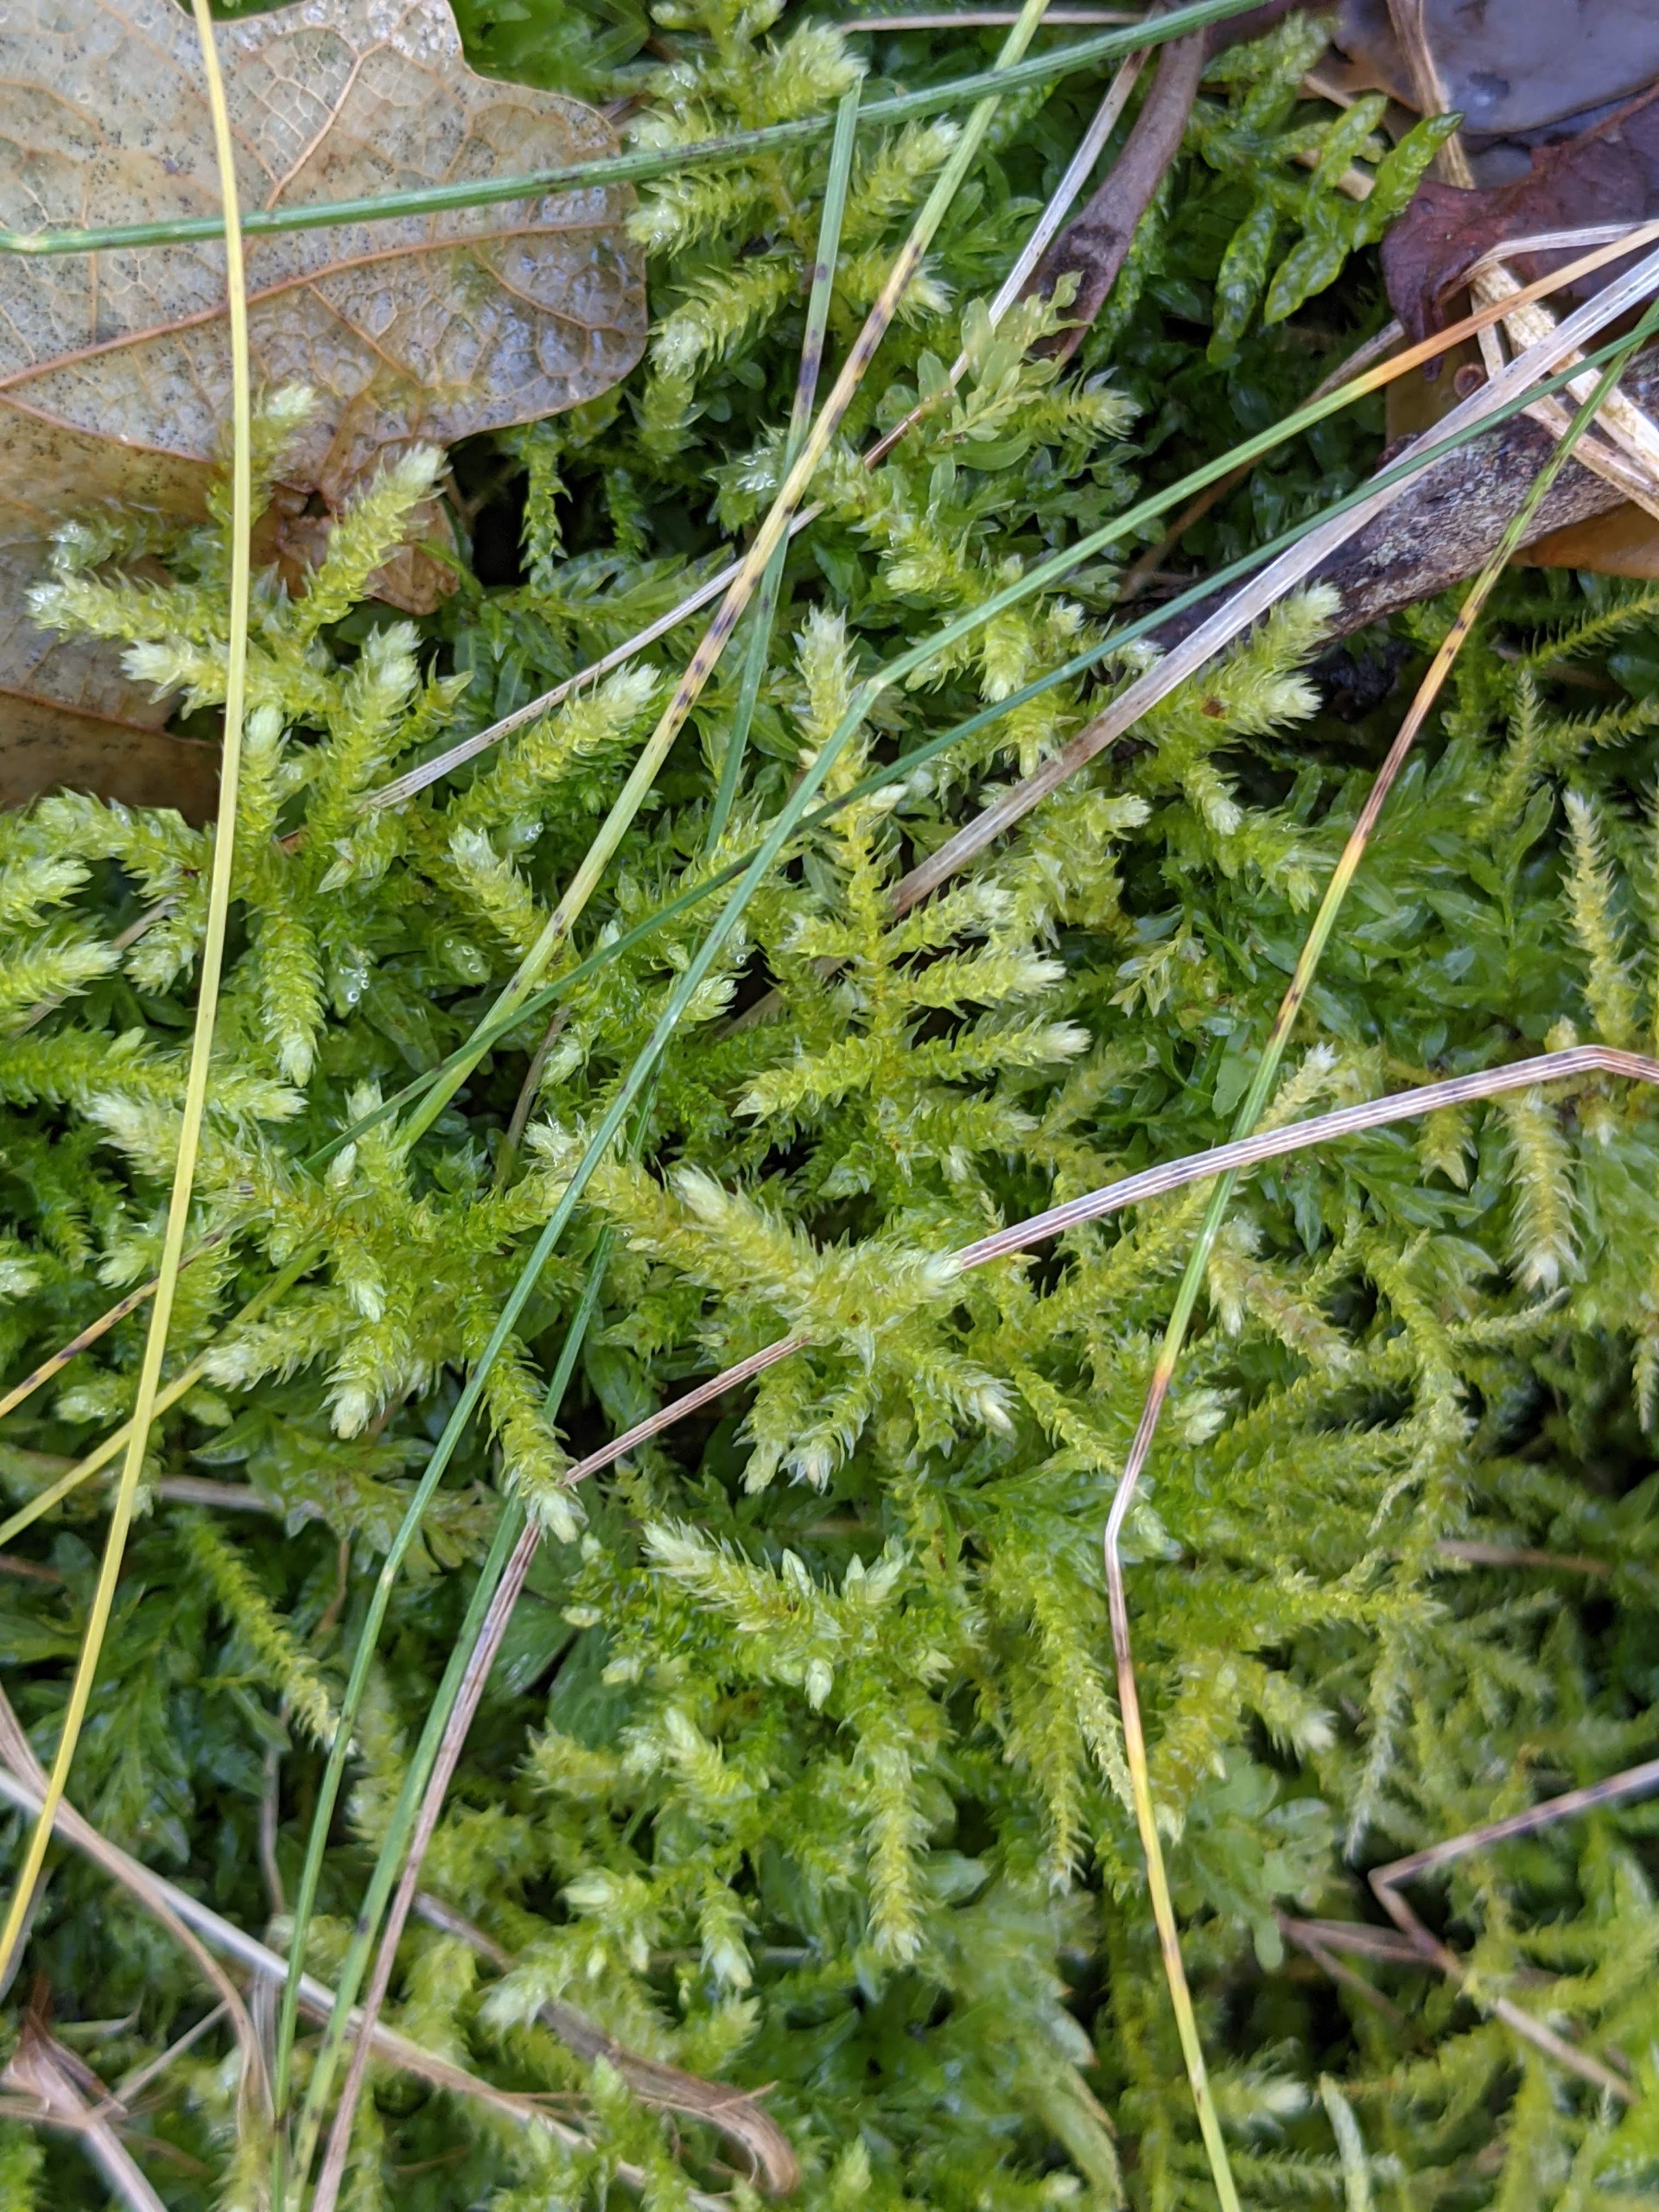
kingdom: Plantae
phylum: Bryophyta
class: Bryopsida
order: Hypnales
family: Brachytheciaceae
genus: Eurhynchium
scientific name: Eurhynchium striatum
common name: Stribet næbmos
